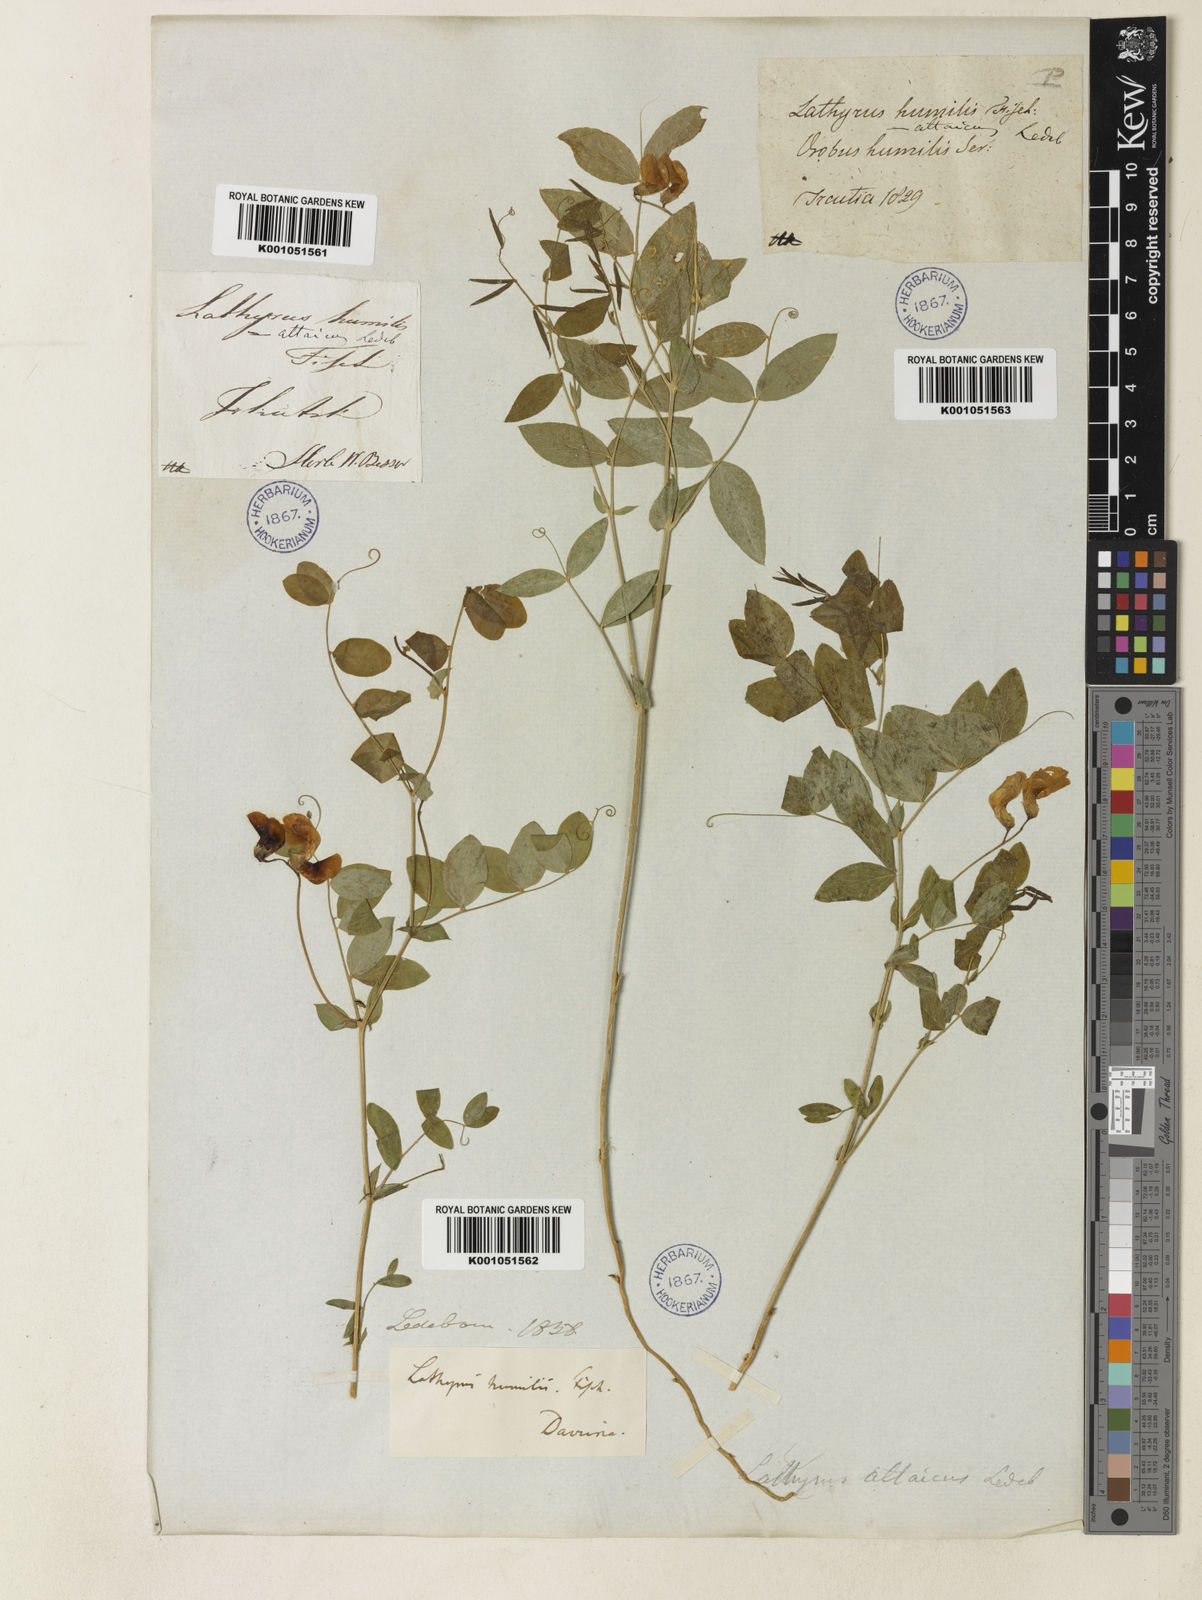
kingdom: Plantae
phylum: Tracheophyta
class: Magnoliopsida
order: Fabales
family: Fabaceae
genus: Lathyrus
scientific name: Lathyrus humilis
